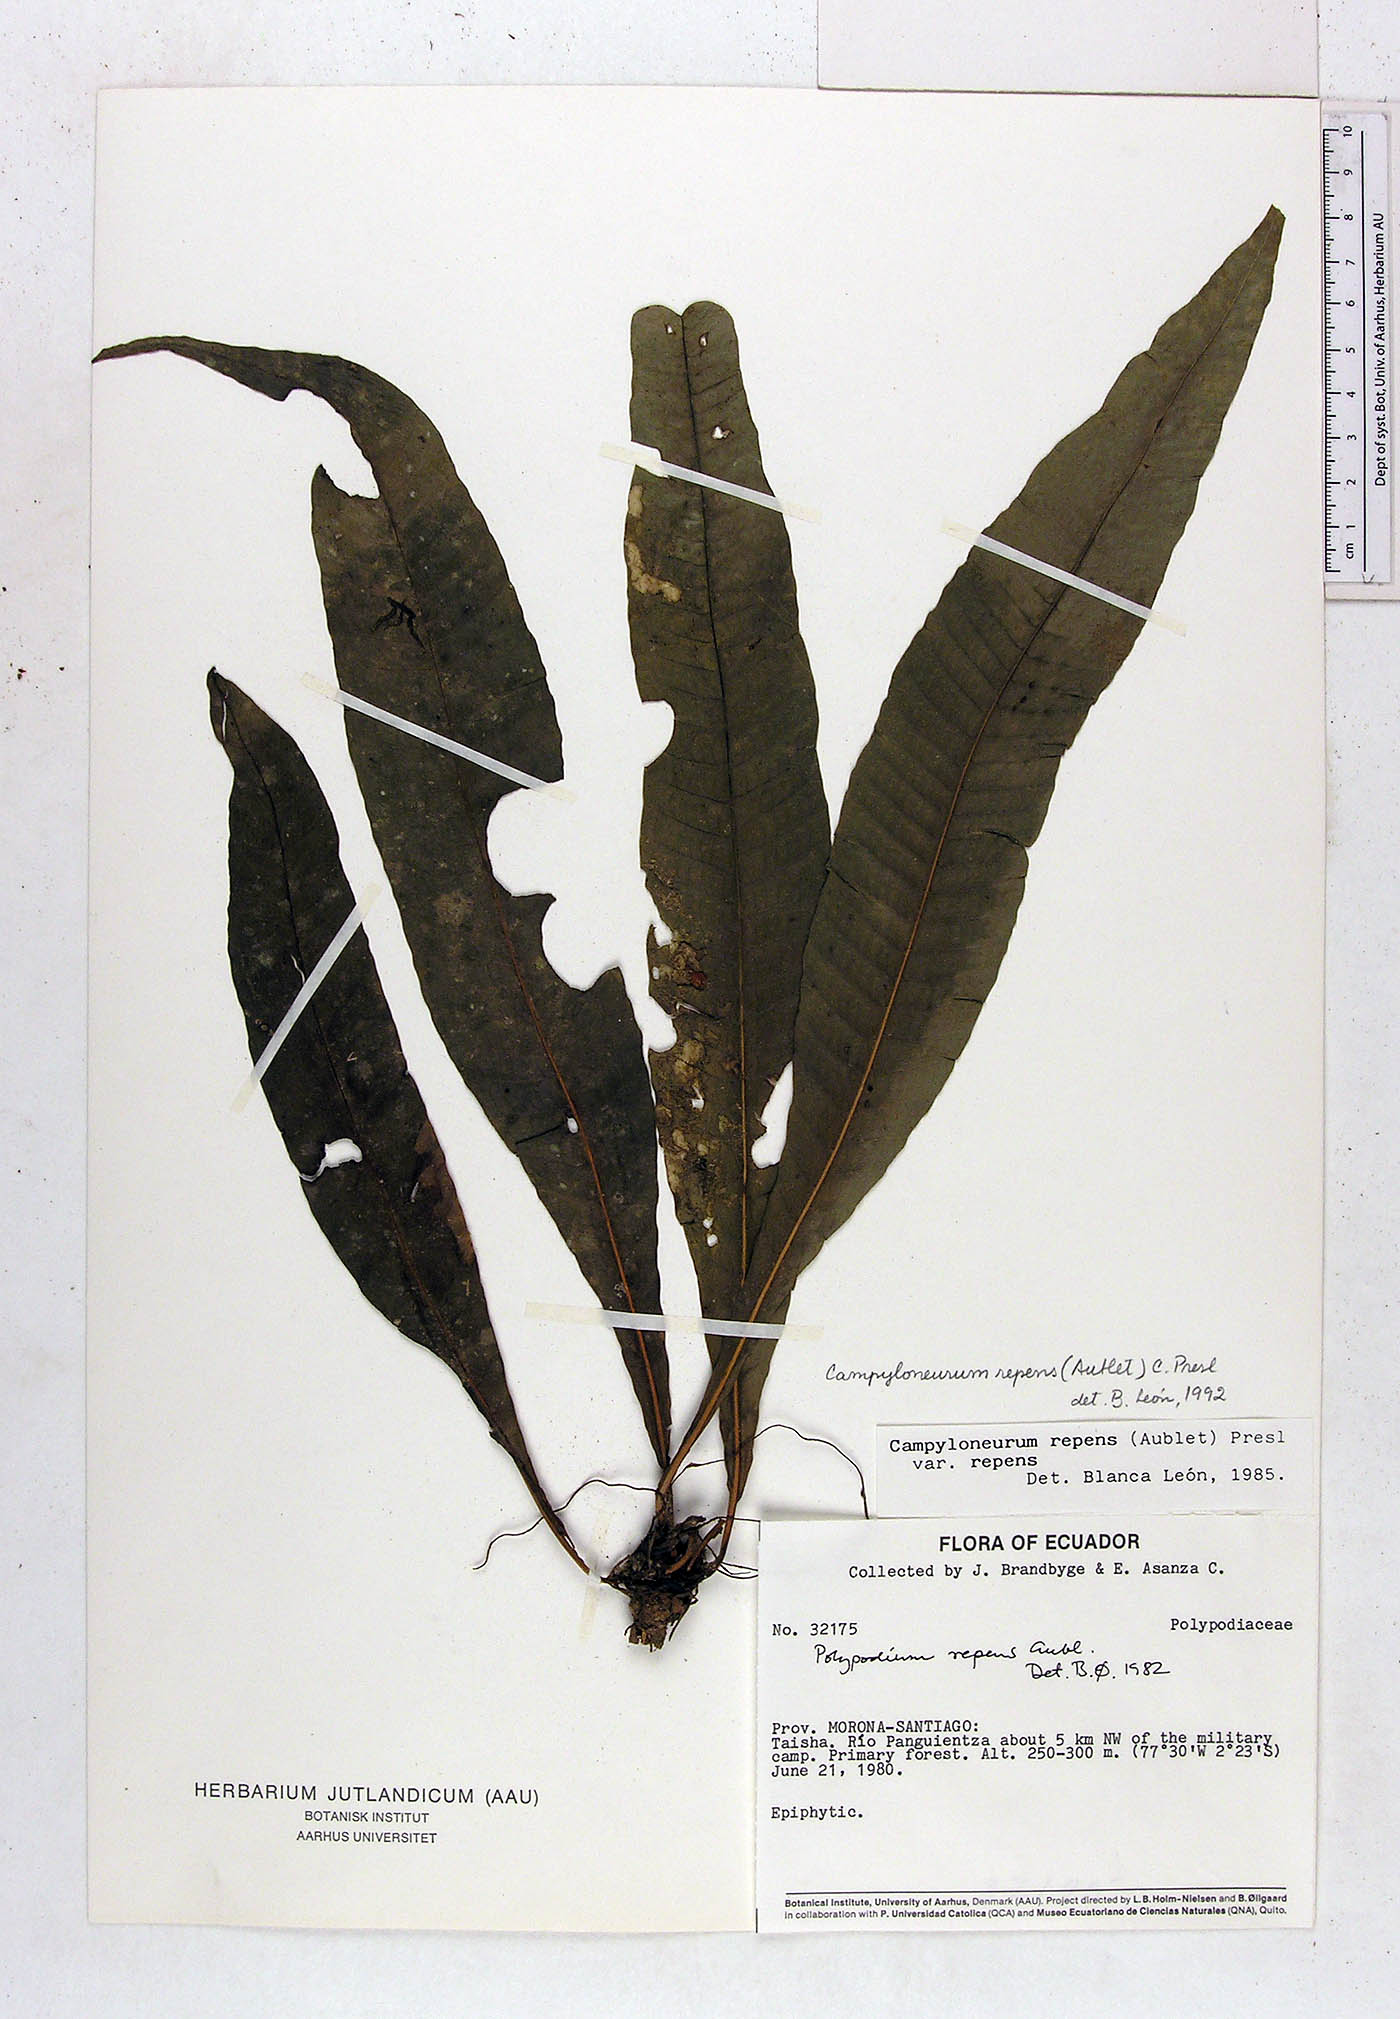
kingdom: Plantae
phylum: Tracheophyta
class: Polypodiopsida
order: Polypodiales
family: Polypodiaceae
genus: Campyloneurum
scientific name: Campyloneurum repens
